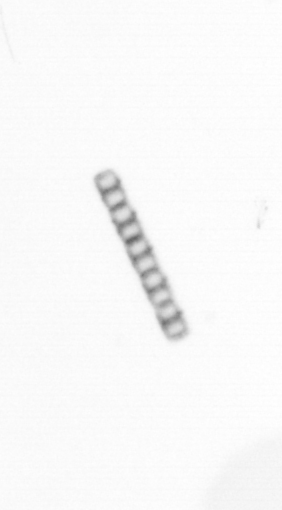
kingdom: Chromista
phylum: Ochrophyta
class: Bacillariophyceae
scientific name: Bacillariophyceae
